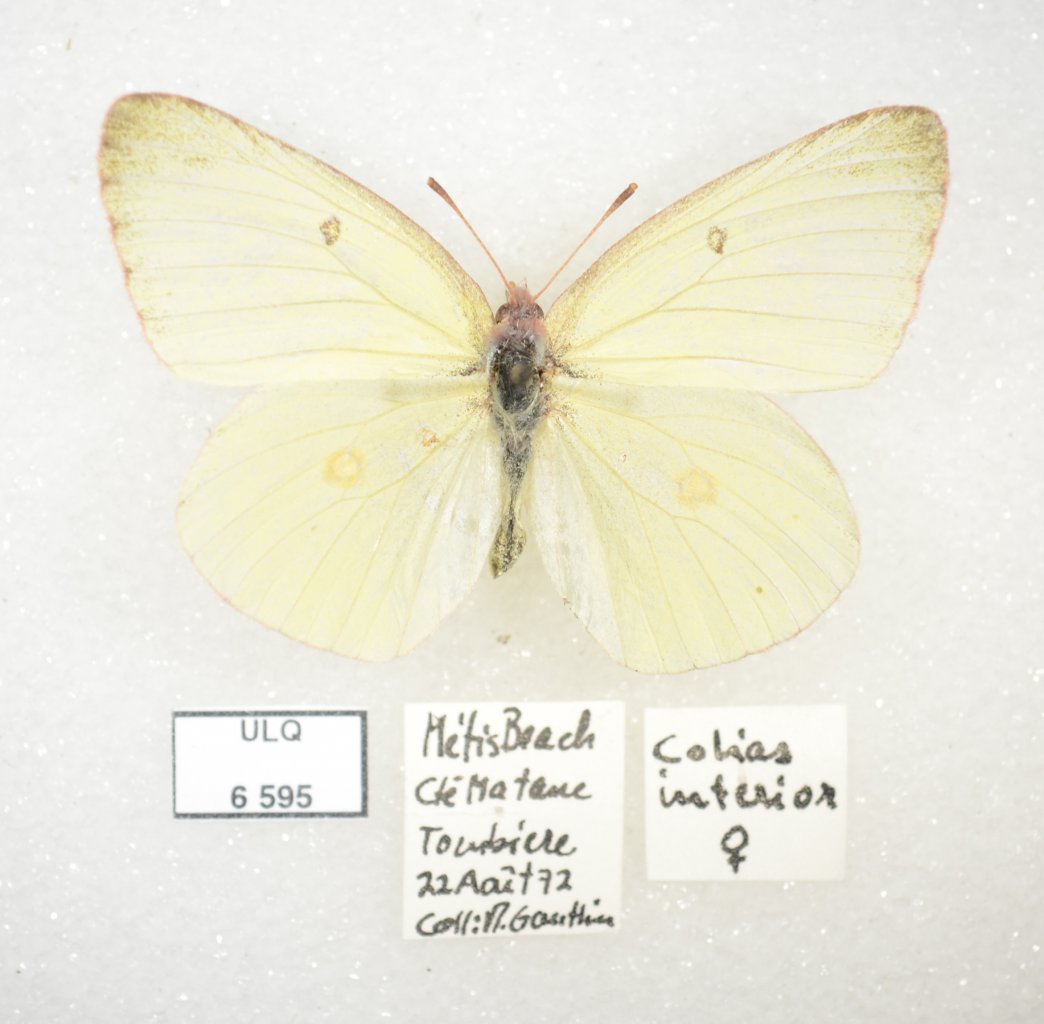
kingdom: Animalia
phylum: Arthropoda
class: Insecta
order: Lepidoptera
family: Pieridae
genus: Colias
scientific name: Colias interior
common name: Pink-edged Sulphur
